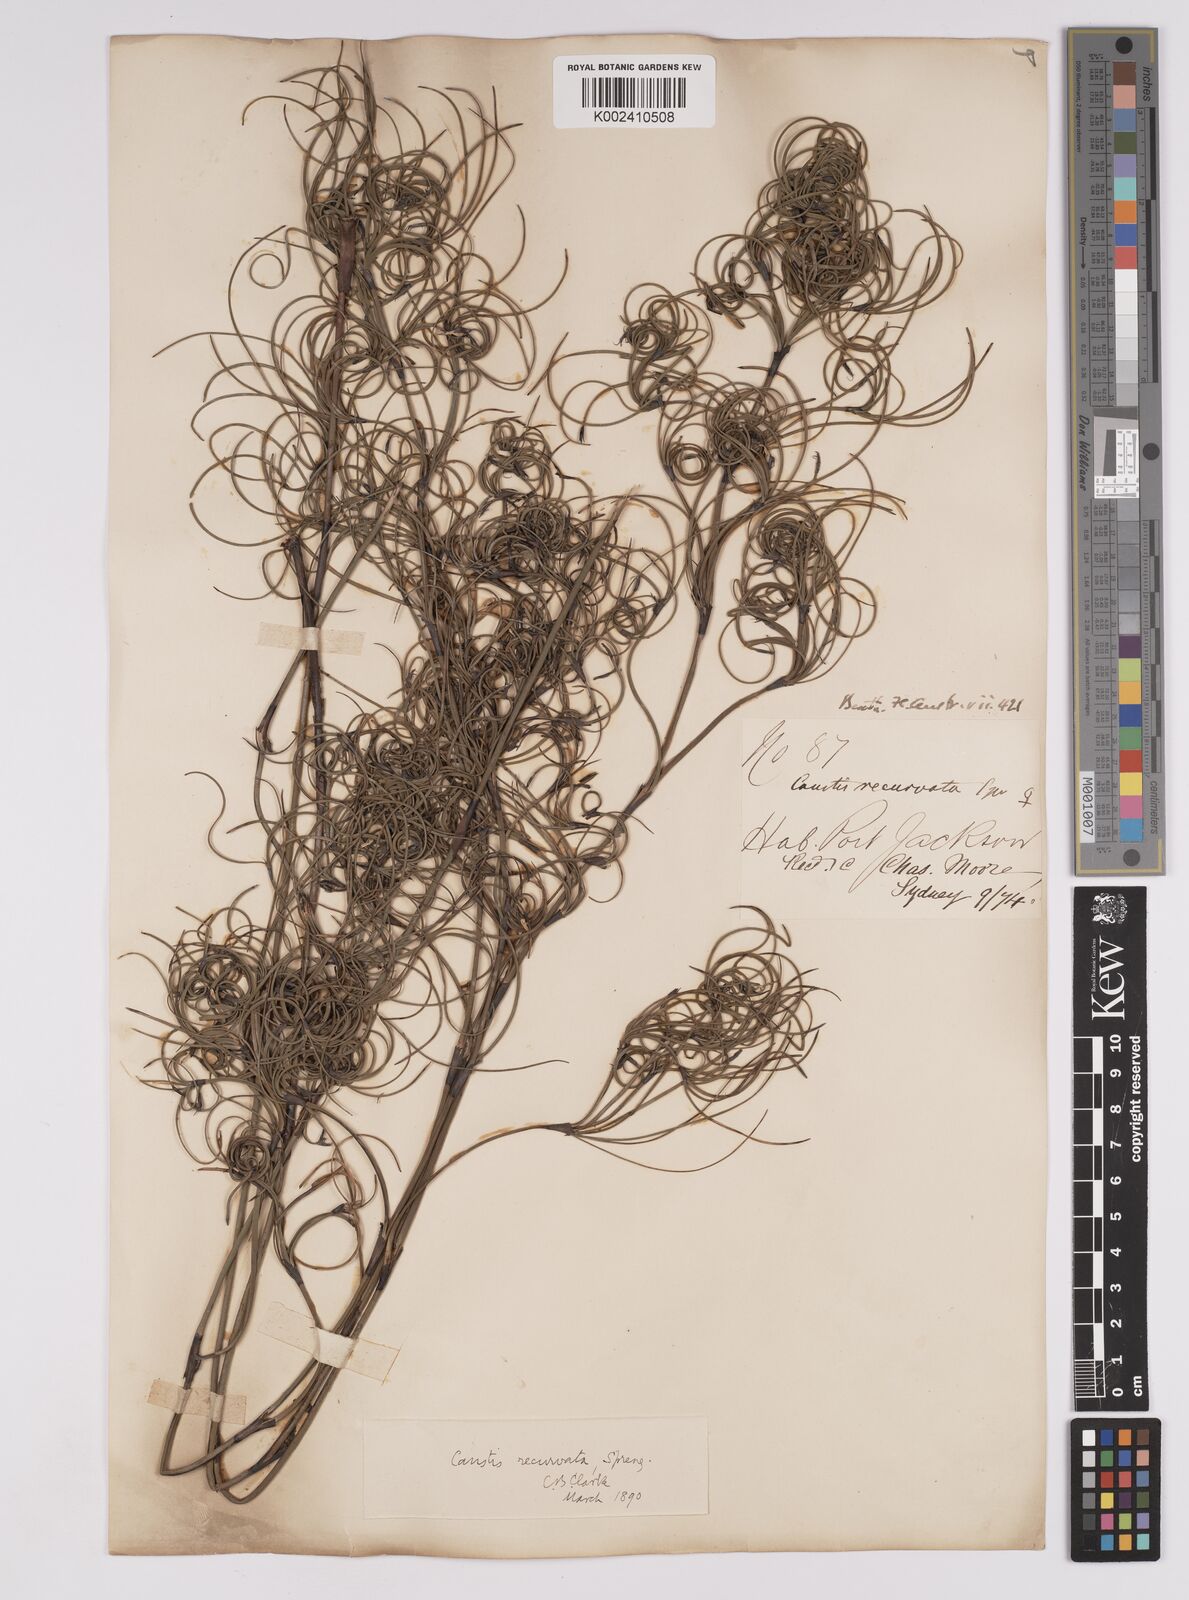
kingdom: Plantae
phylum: Tracheophyta
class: Liliopsida
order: Poales
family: Cyperaceae
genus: Caustis
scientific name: Caustis recurvata
